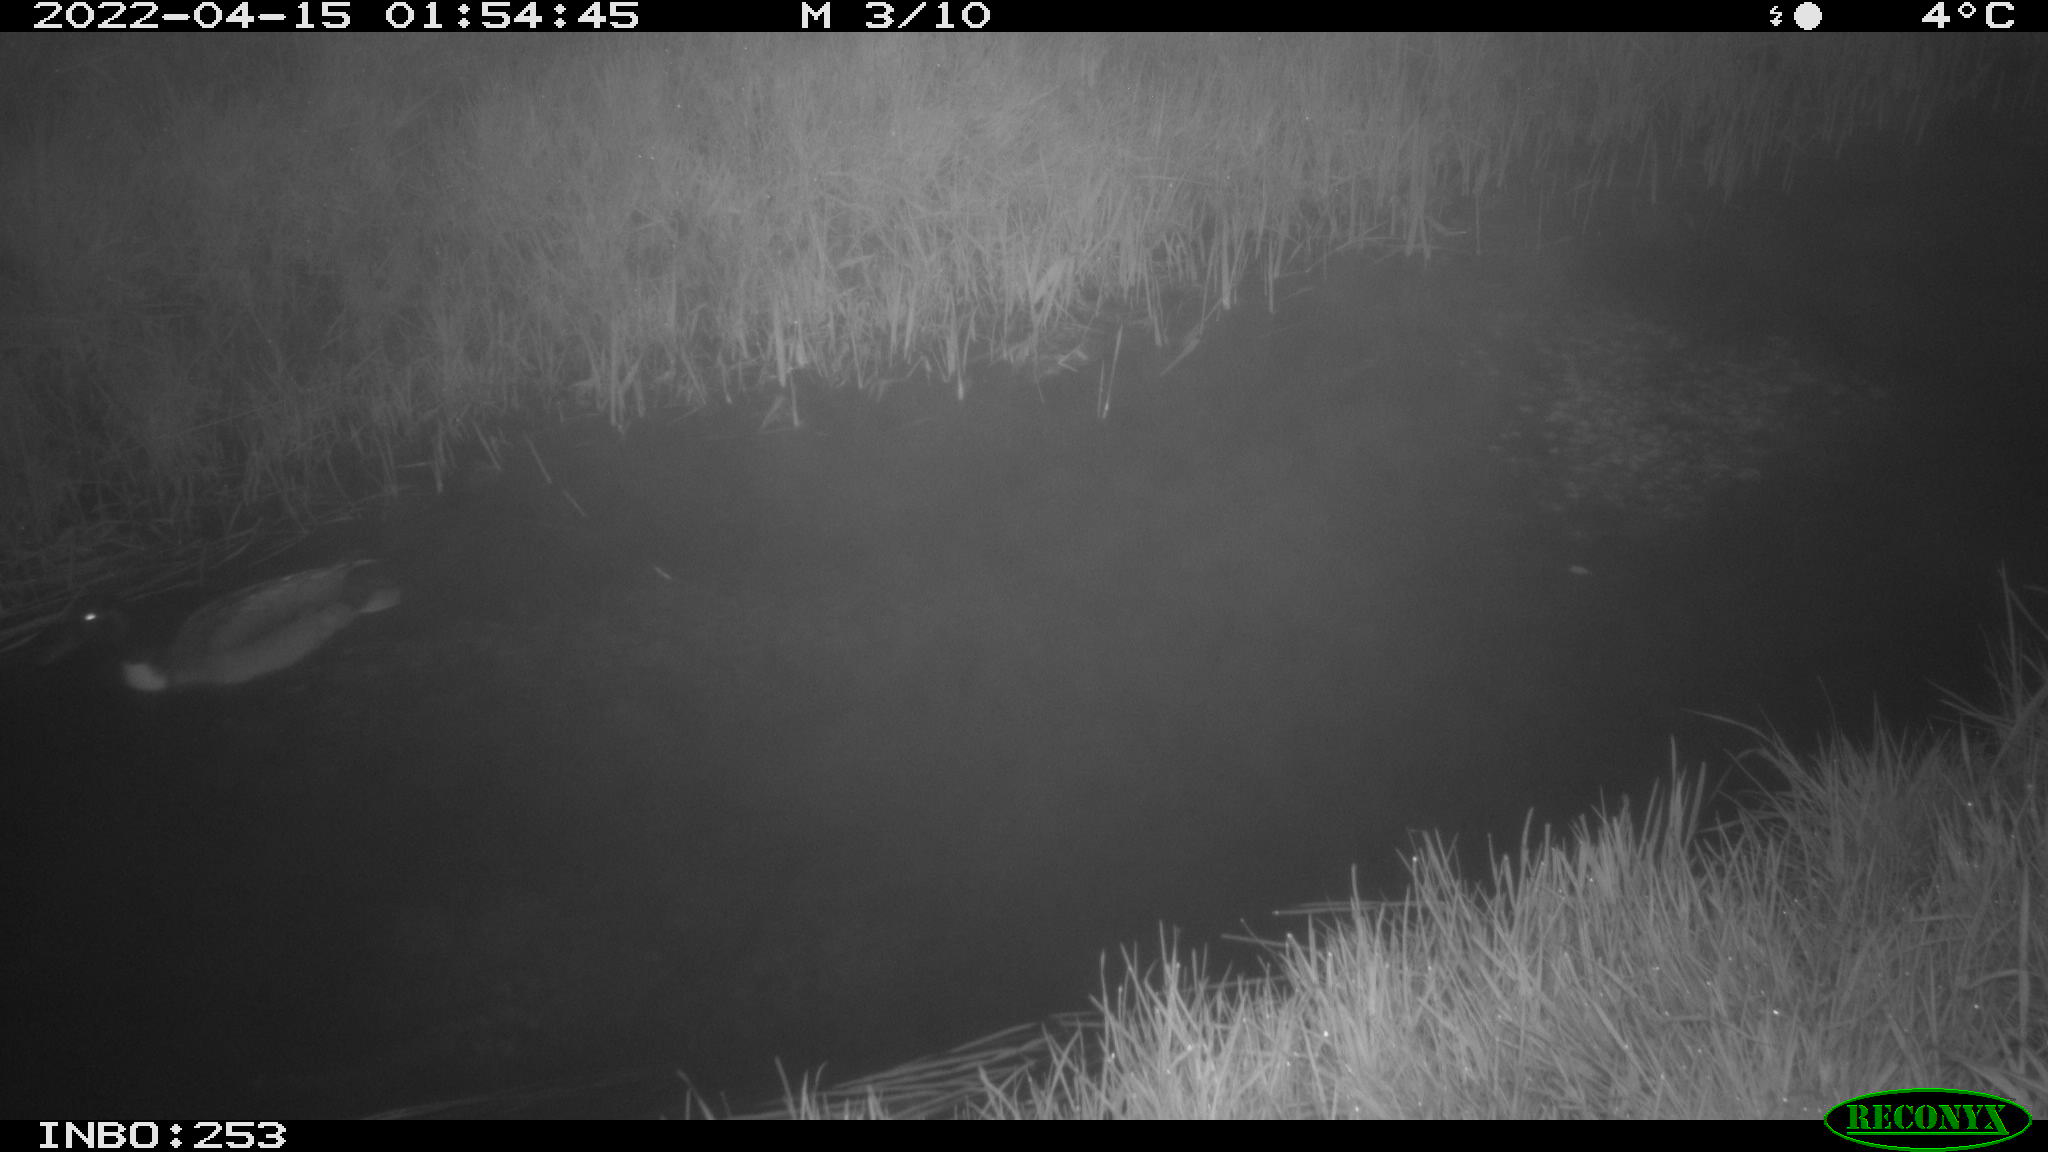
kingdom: Animalia
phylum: Chordata
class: Aves
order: Anseriformes
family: Anatidae
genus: Anas
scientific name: Anas platyrhynchos
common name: Mallard
